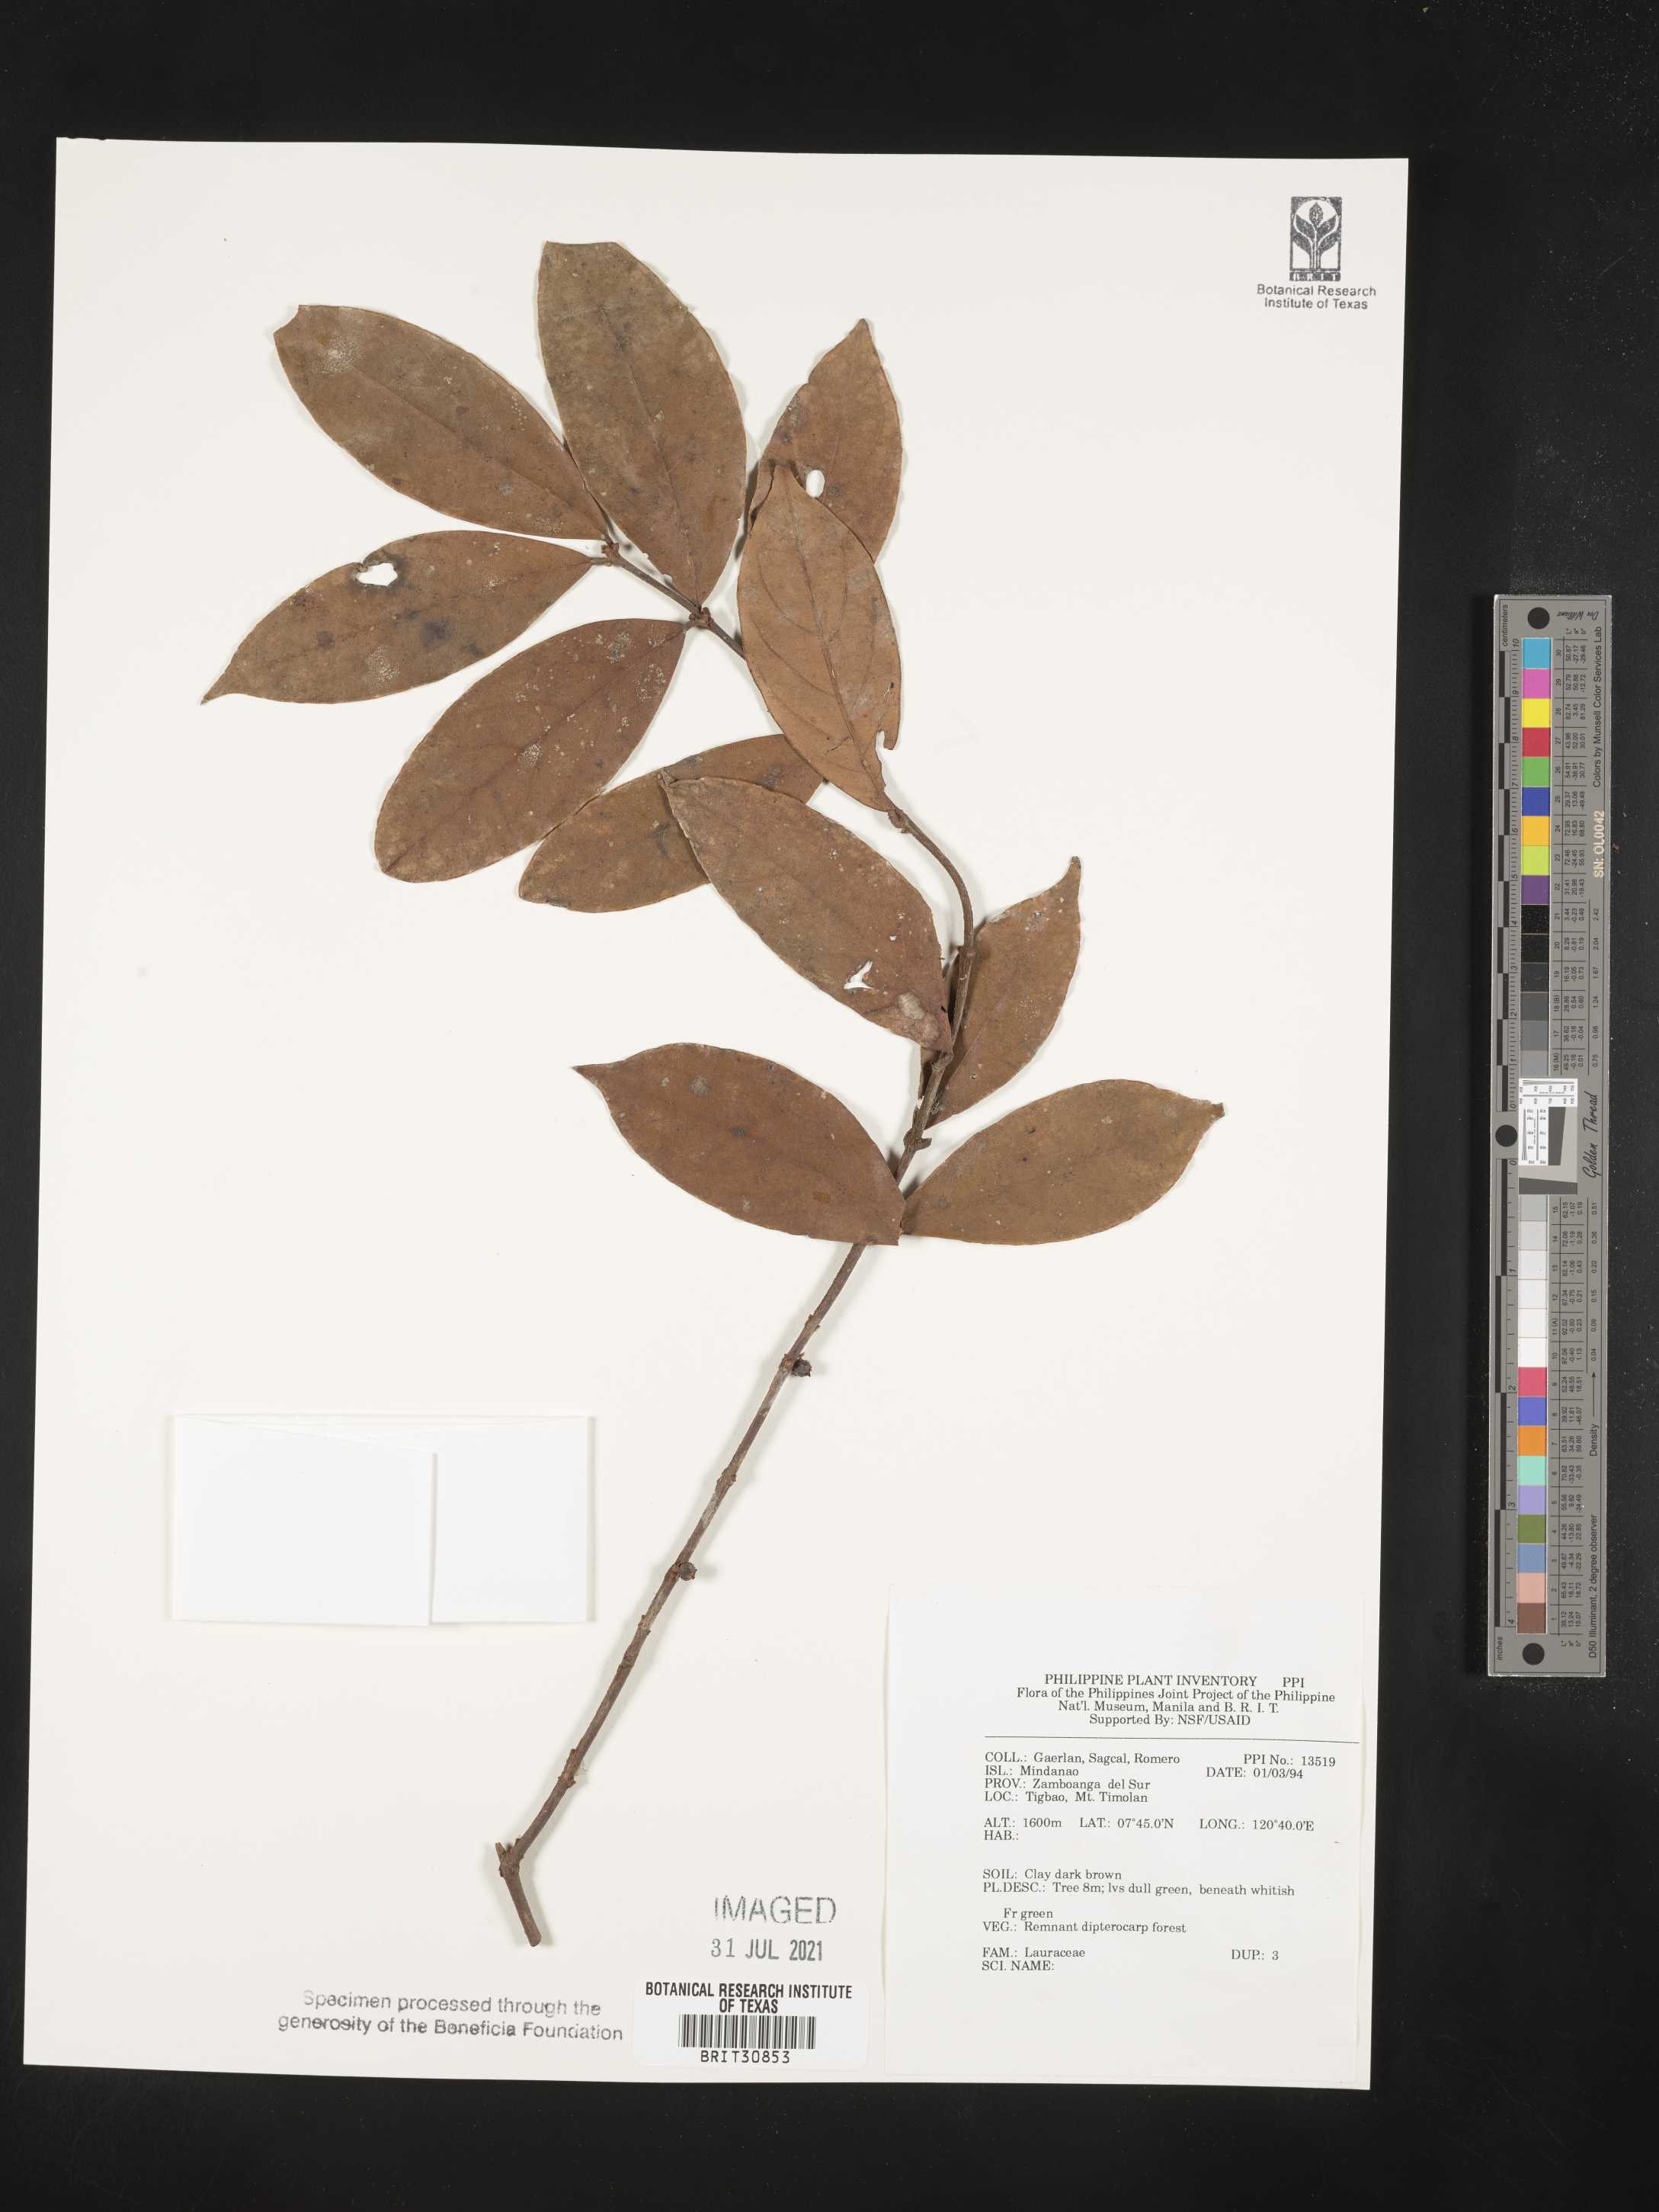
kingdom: Plantae
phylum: Tracheophyta
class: Magnoliopsida
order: Laurales
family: Lauraceae
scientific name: Lauraceae
